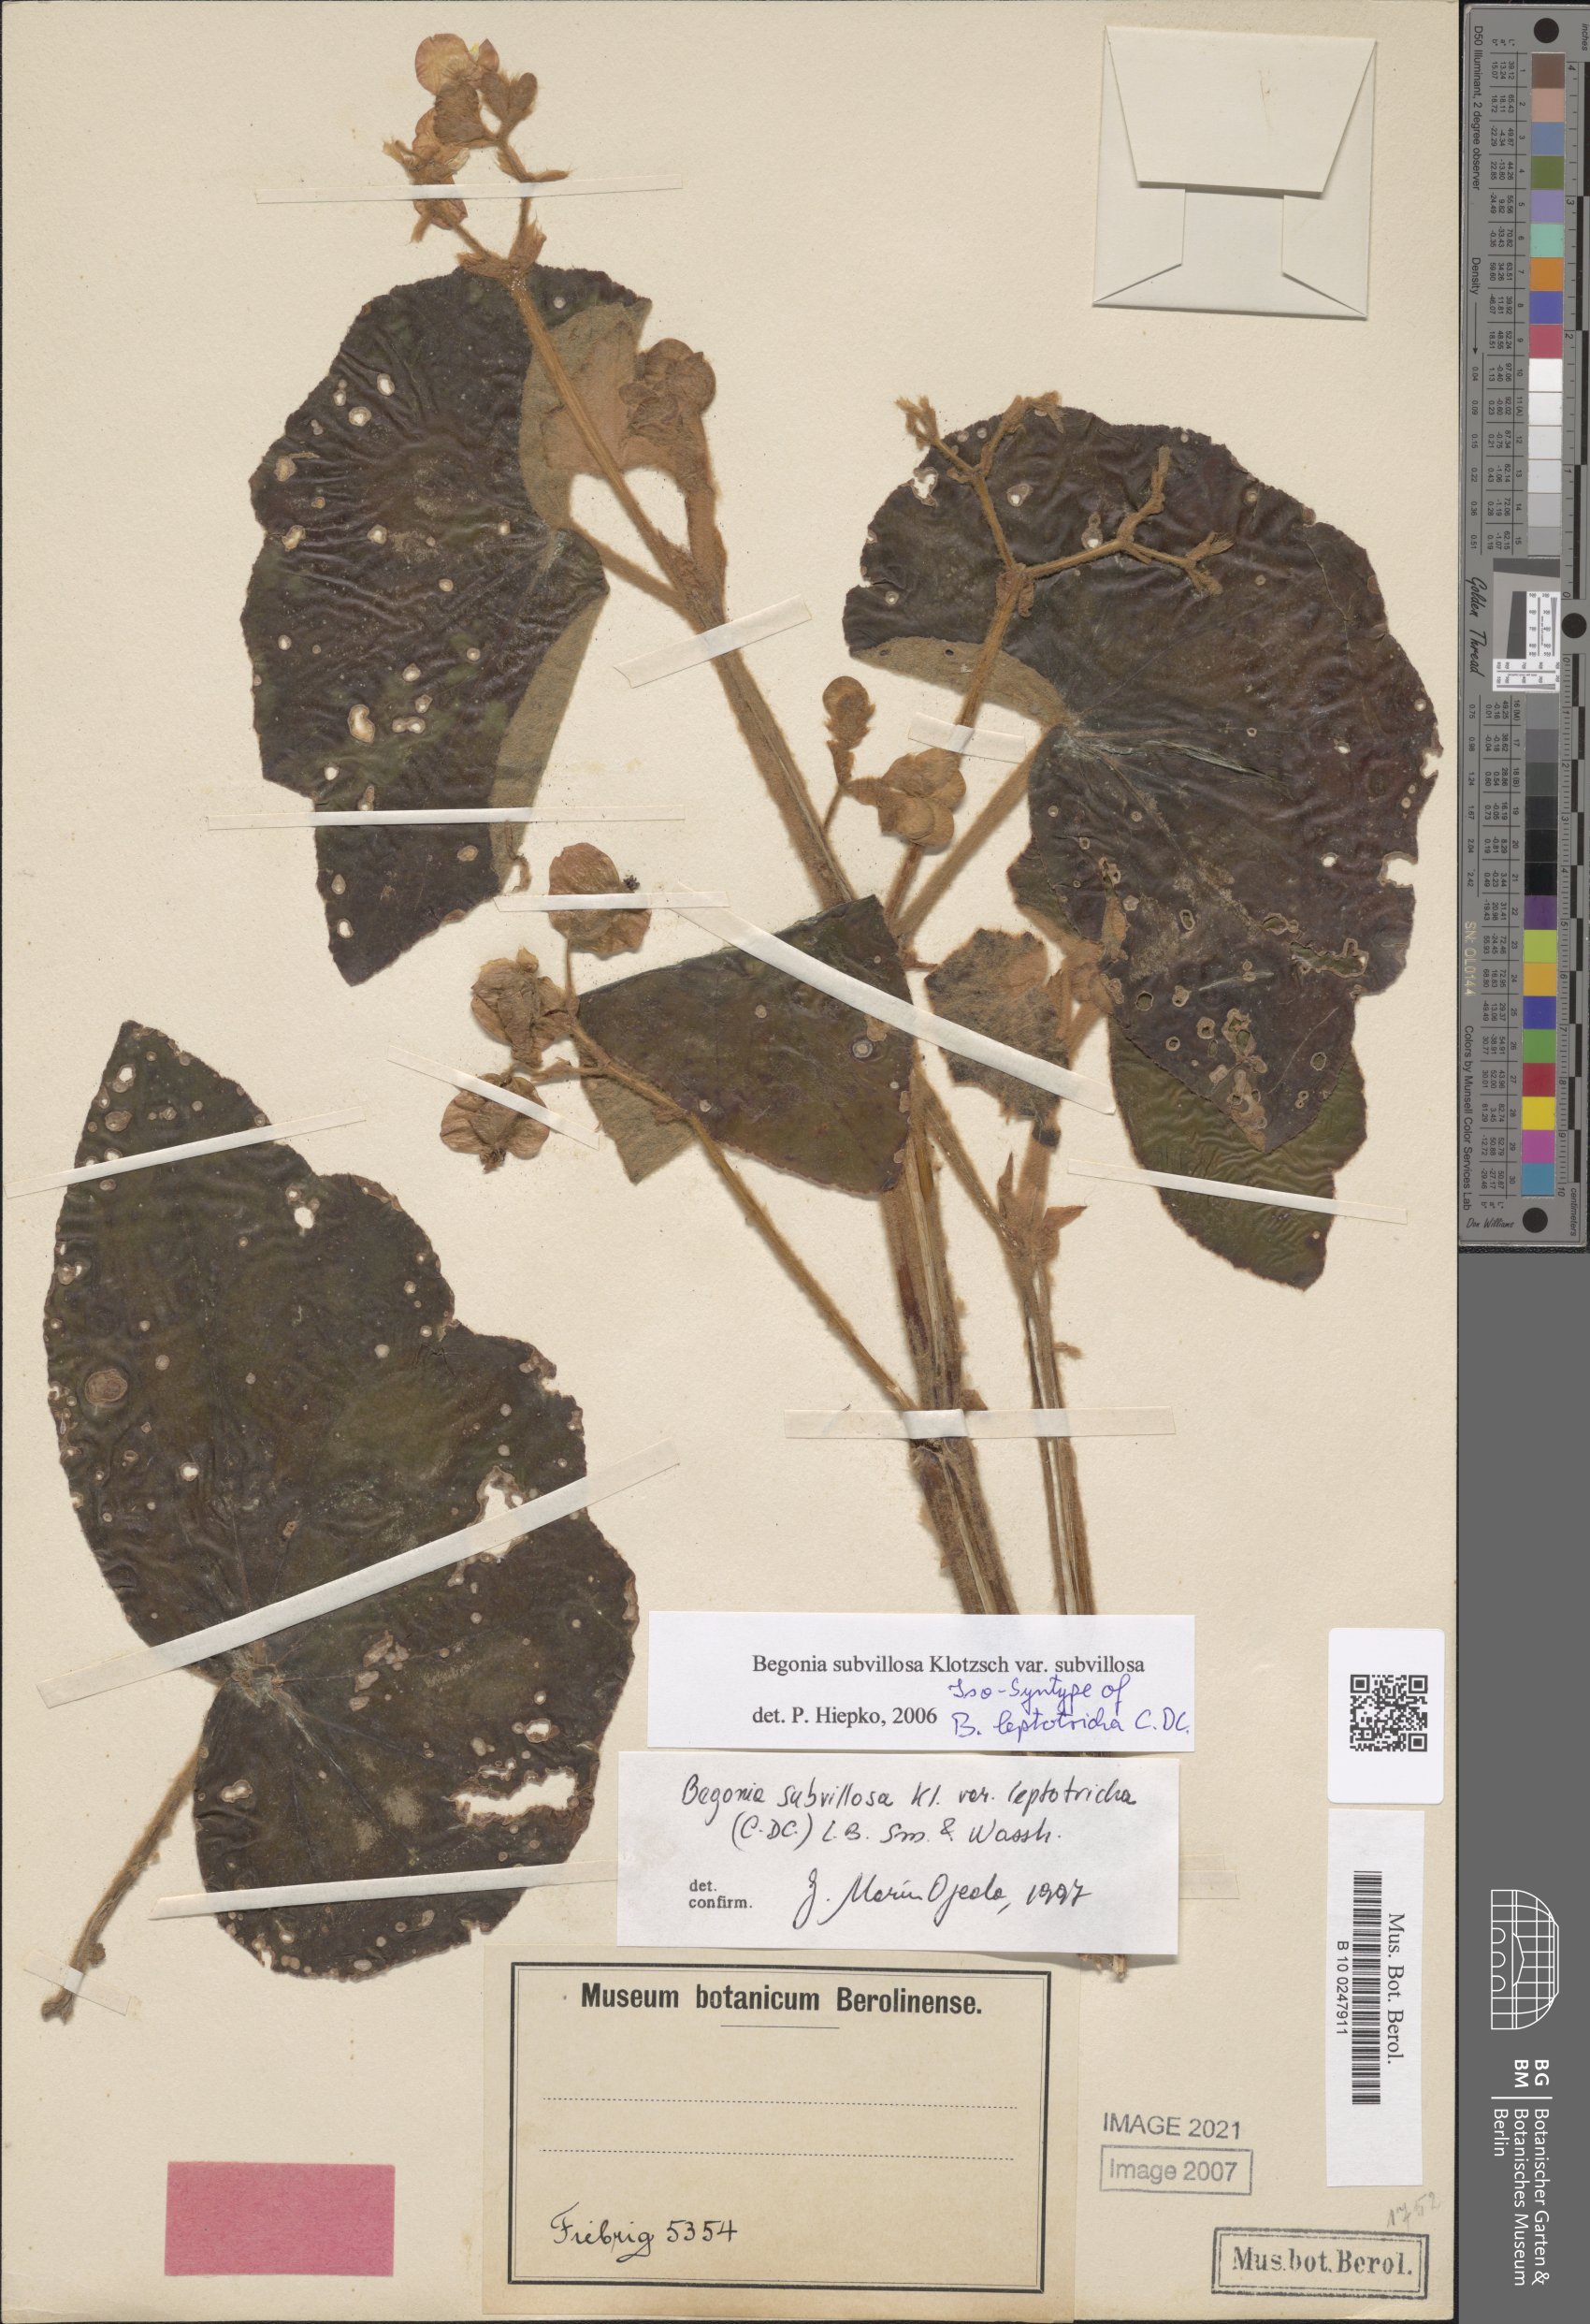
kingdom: Plantae
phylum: Tracheophyta
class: Magnoliopsida
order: Cucurbitales
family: Begoniaceae
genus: Begonia
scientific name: Begonia subvillosa
